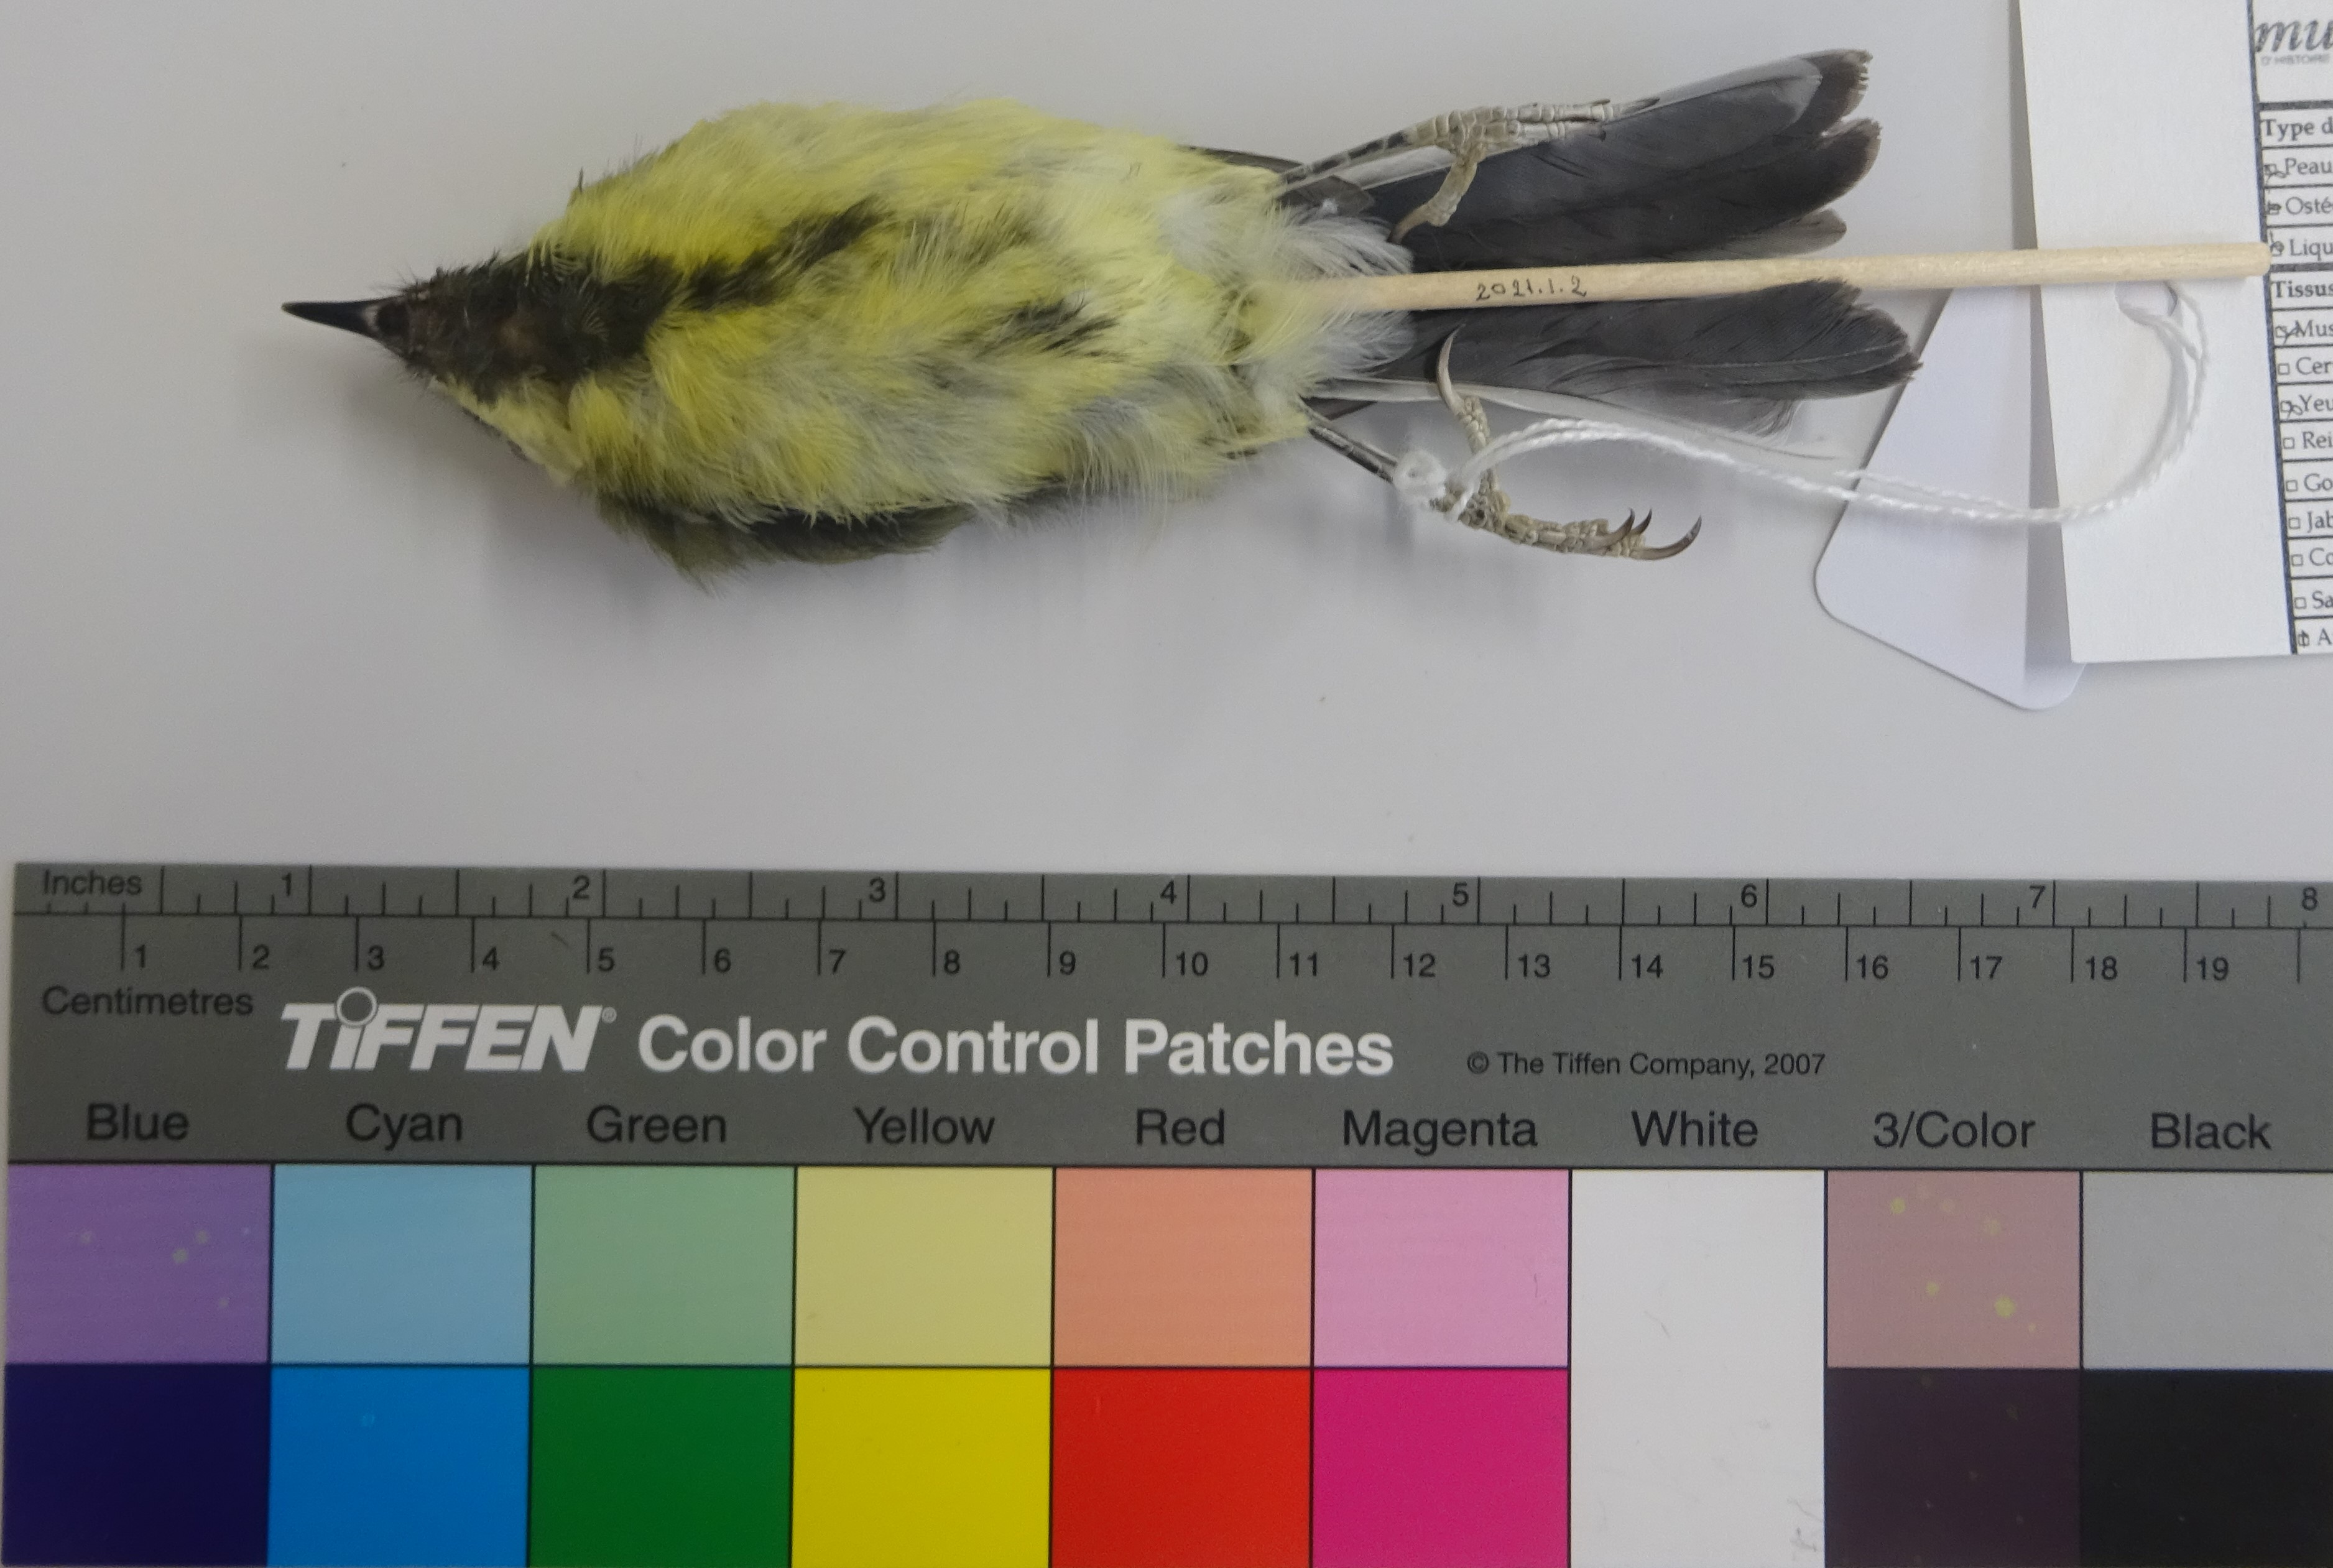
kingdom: Animalia
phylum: Chordata
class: Aves
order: Passeriformes
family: Paridae
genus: Parus
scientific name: Parus major
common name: Great tit
